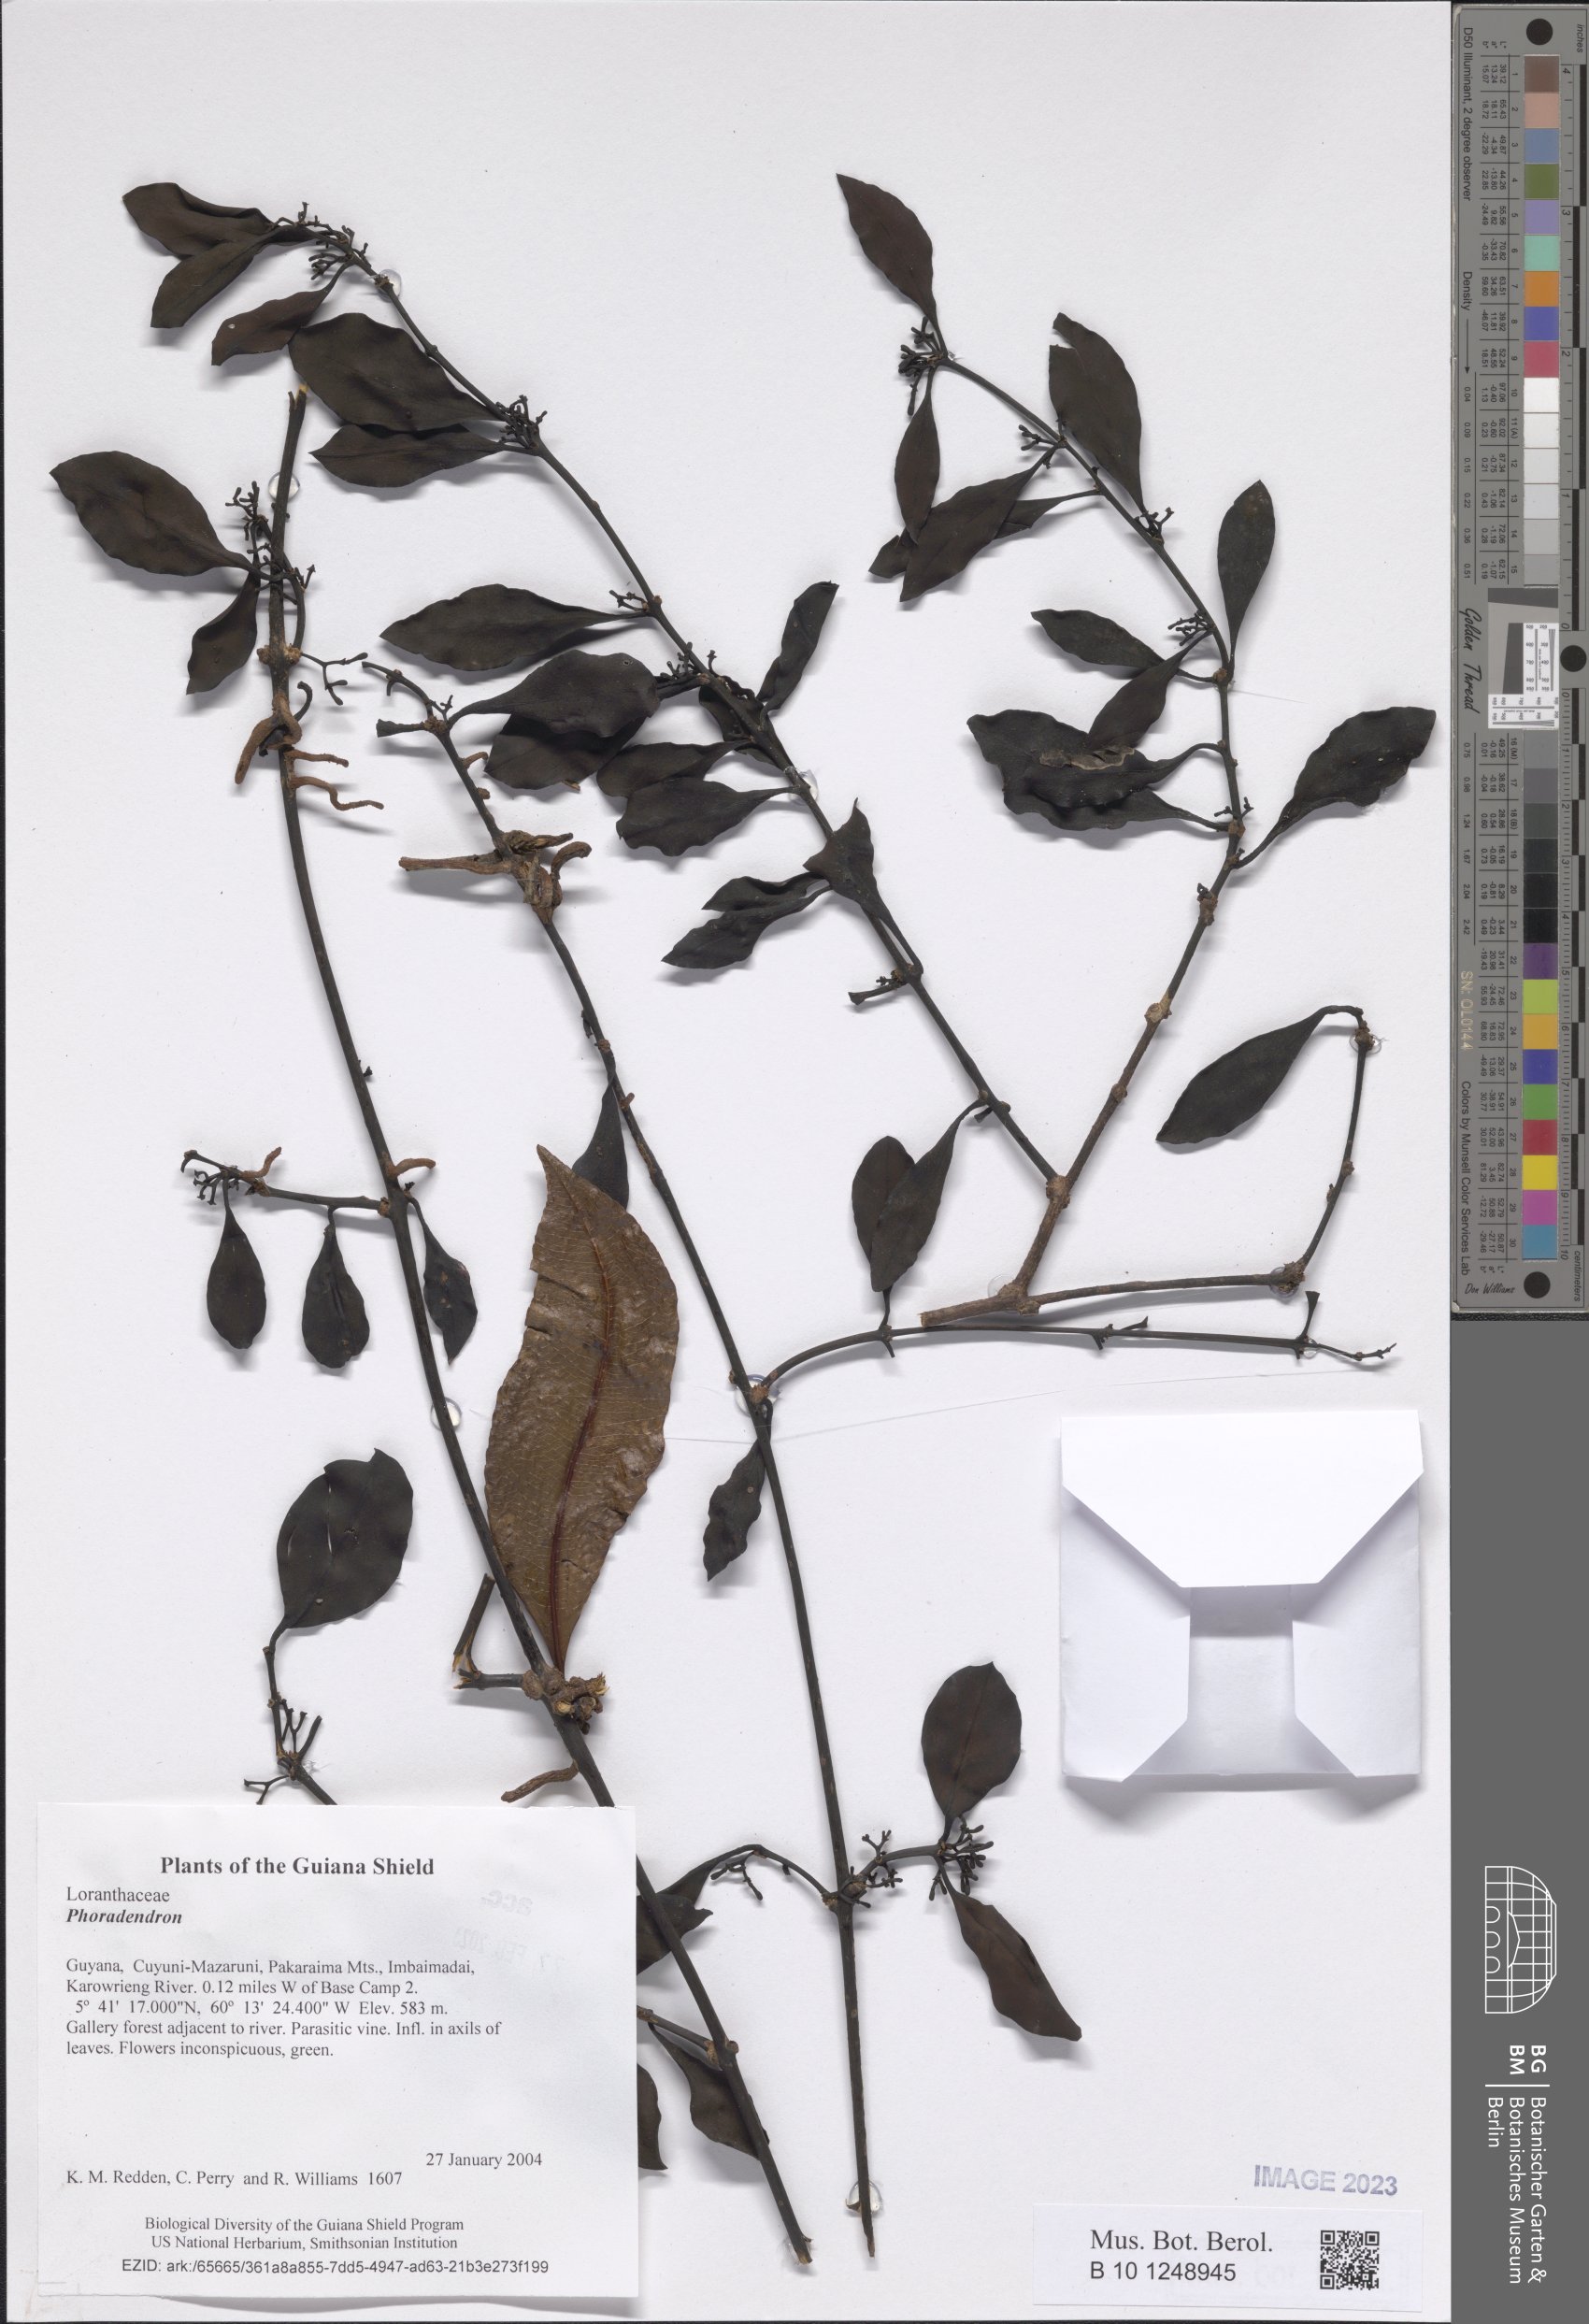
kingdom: Plantae
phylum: Tracheophyta
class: Magnoliopsida
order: Santalales
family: Viscaceae
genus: Phoradendron
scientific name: Phoradendron
